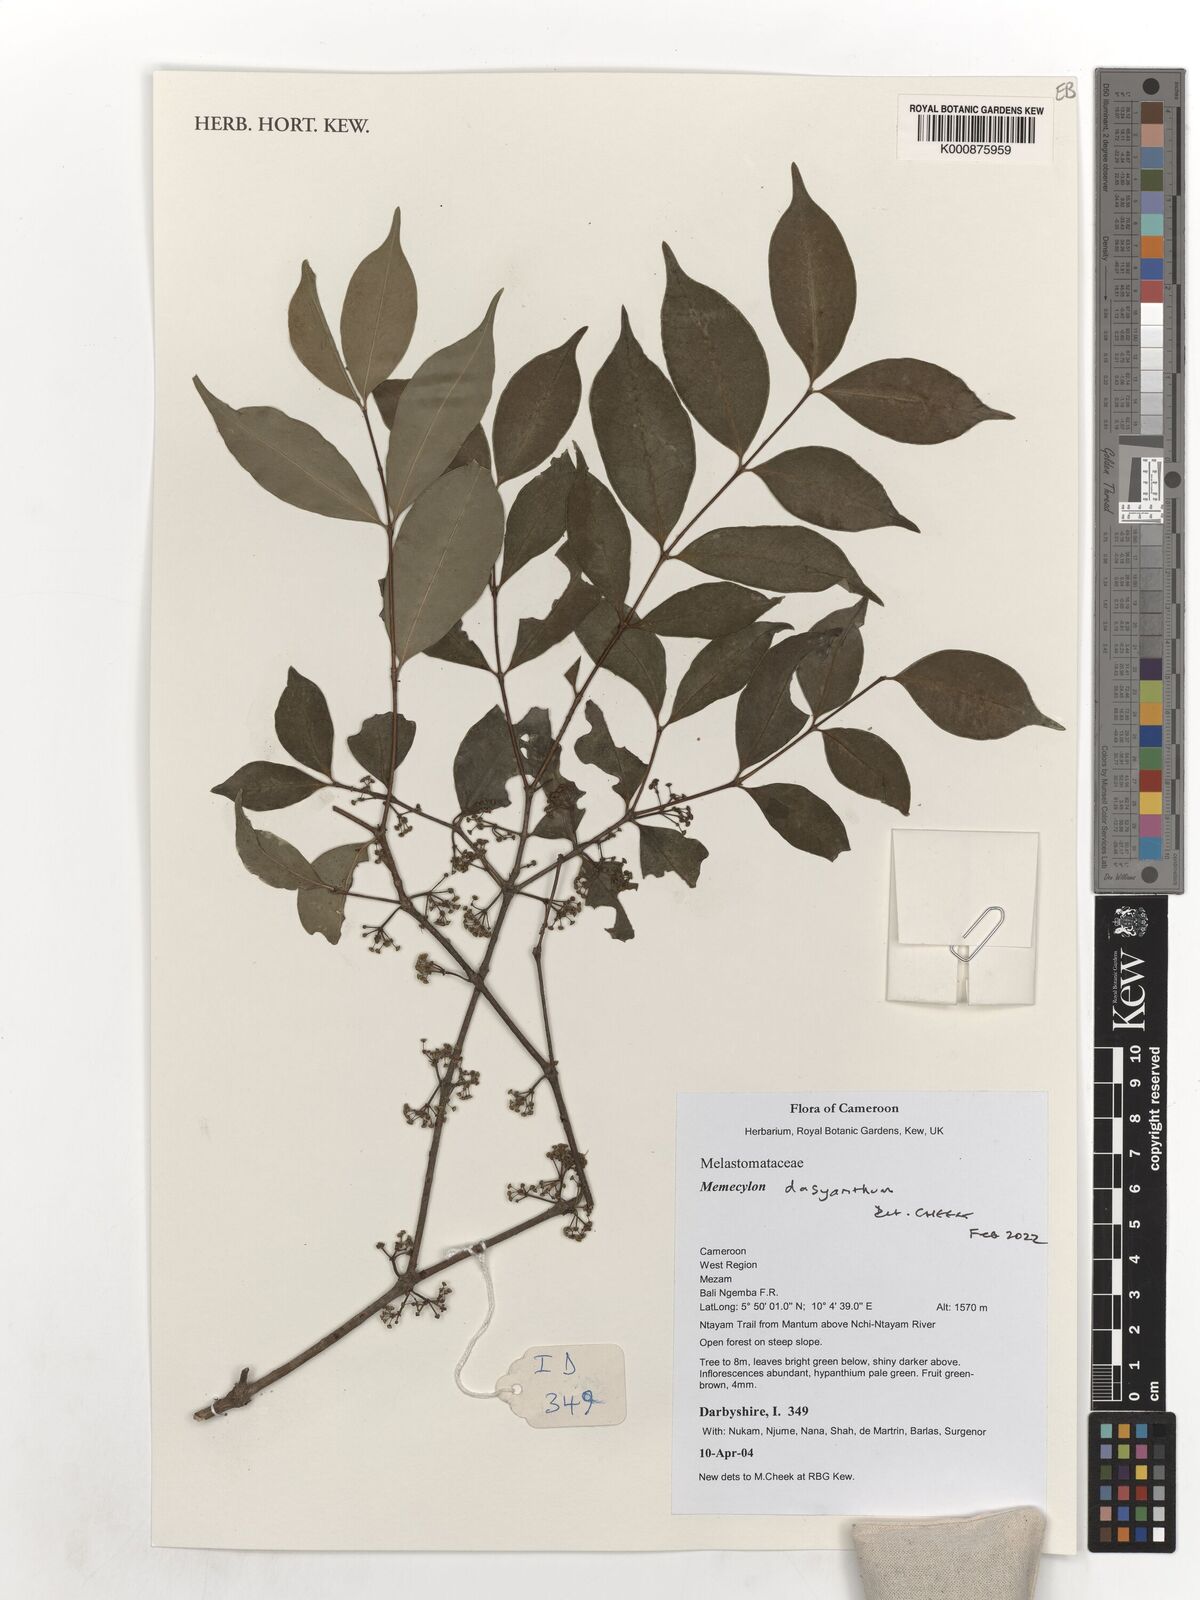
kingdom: Plantae
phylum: Tracheophyta
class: Magnoliopsida
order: Myrtales
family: Melastomataceae
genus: Memecylon
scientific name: Memecylon dasyanthum
